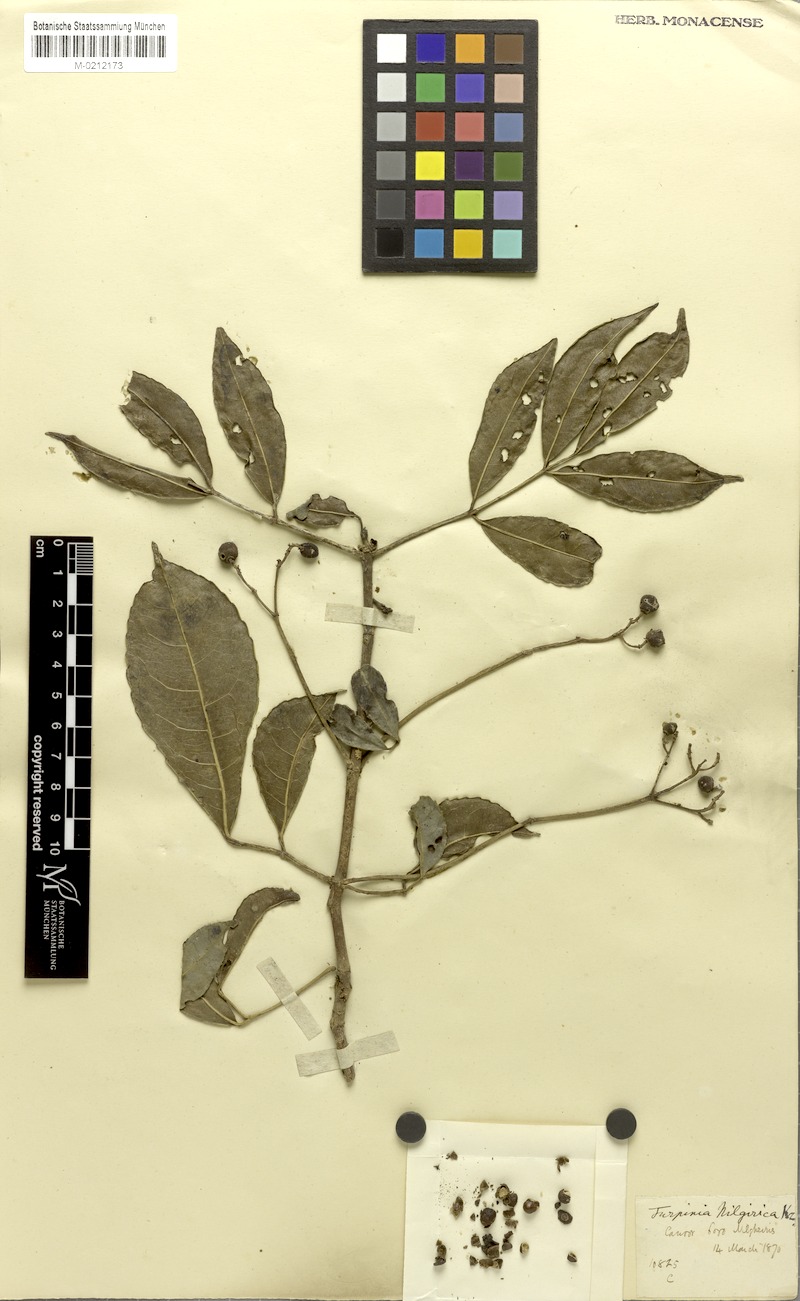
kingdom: Plantae
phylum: Tracheophyta
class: Magnoliopsida
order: Crossosomatales
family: Staphyleaceae
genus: Turpinia
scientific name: Turpinia
